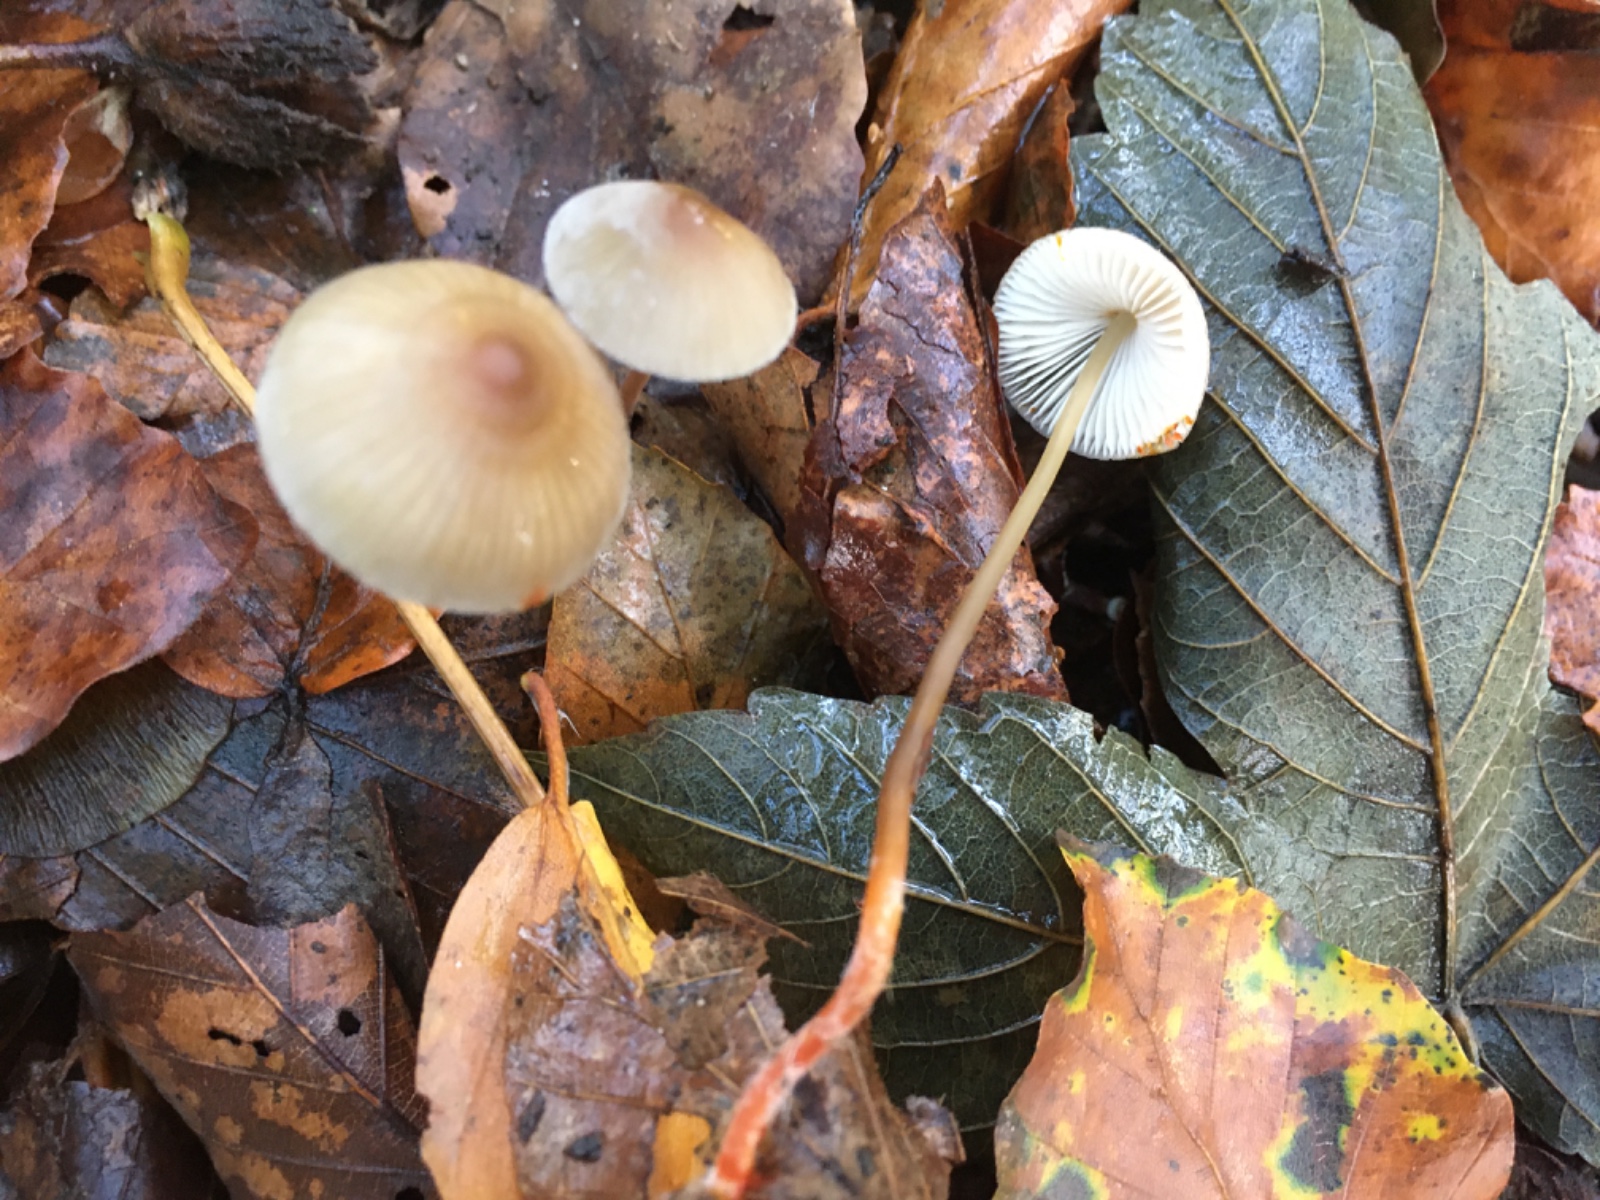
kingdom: Fungi
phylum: Basidiomycota
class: Agaricomycetes
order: Agaricales
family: Mycenaceae
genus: Mycena
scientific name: Mycena crocata
